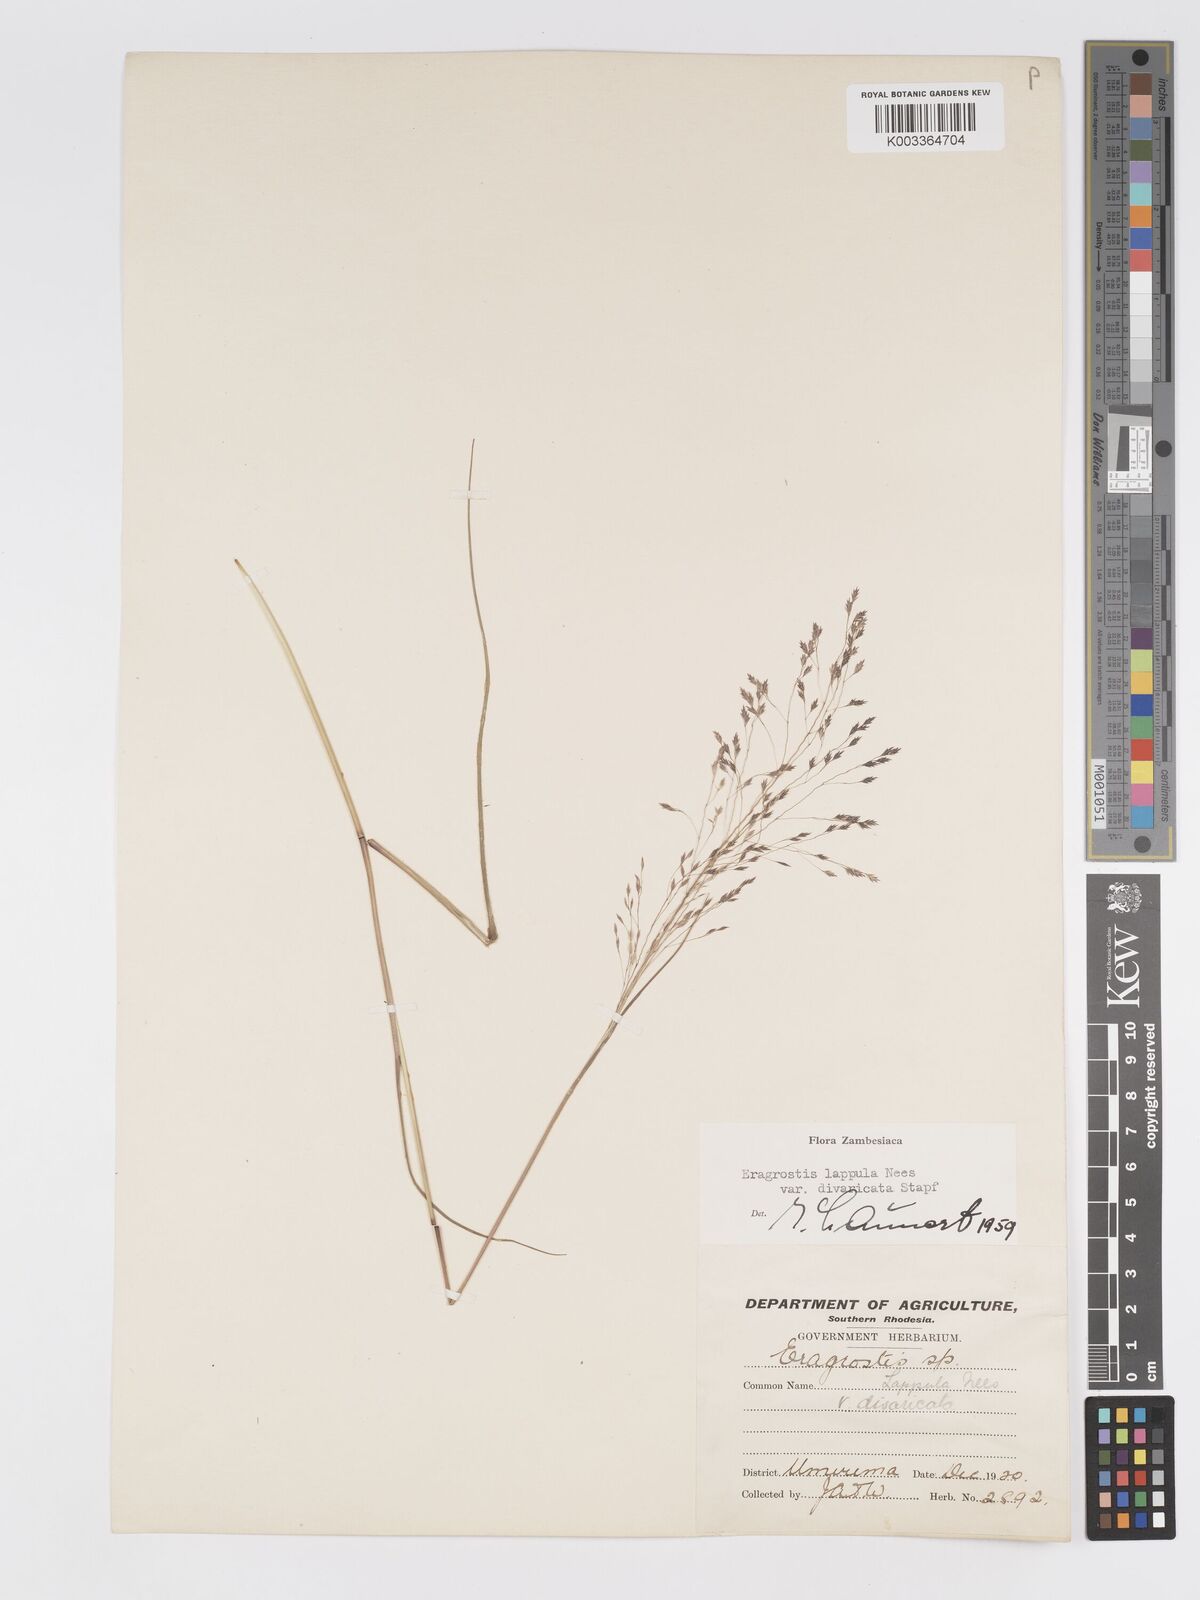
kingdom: Plantae
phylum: Tracheophyta
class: Liliopsida
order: Poales
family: Poaceae
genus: Eragrostis
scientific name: Eragrostis lappula
